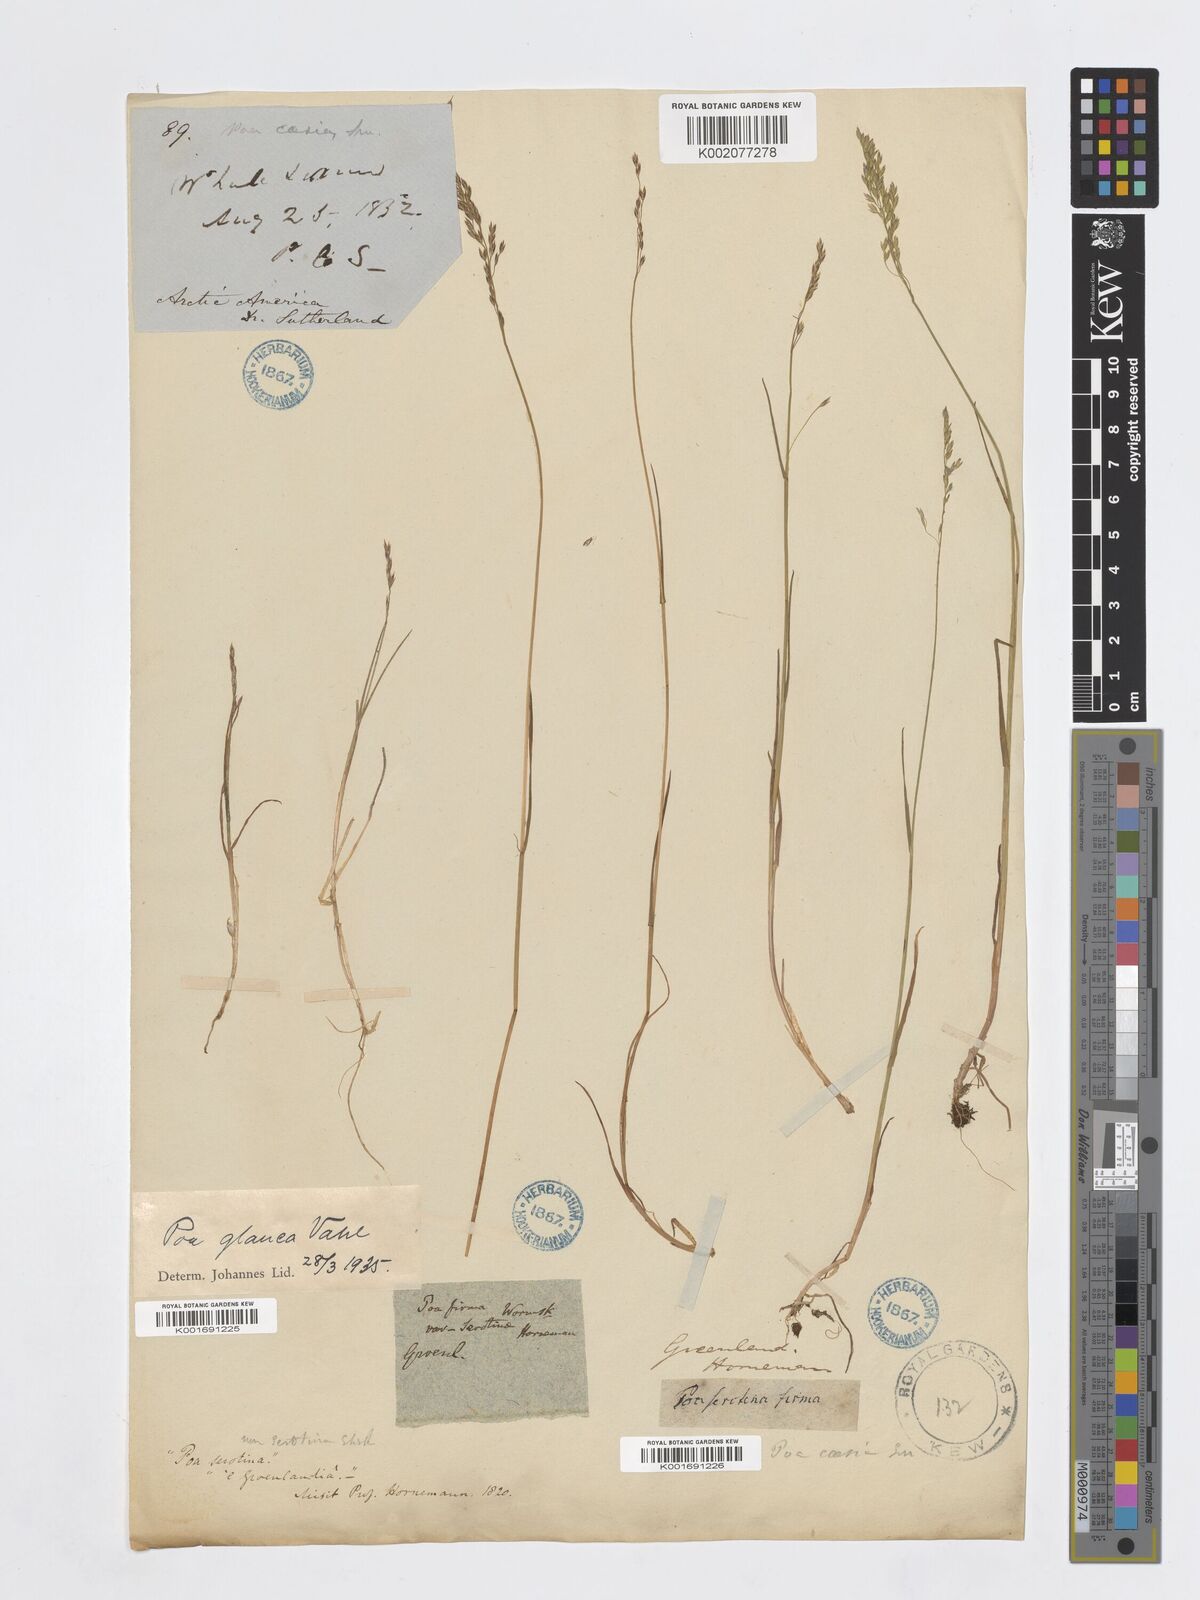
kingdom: Plantae
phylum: Tracheophyta
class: Liliopsida
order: Poales
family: Poaceae
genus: Poa
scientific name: Poa glauca
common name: Glaucous bluegrass
